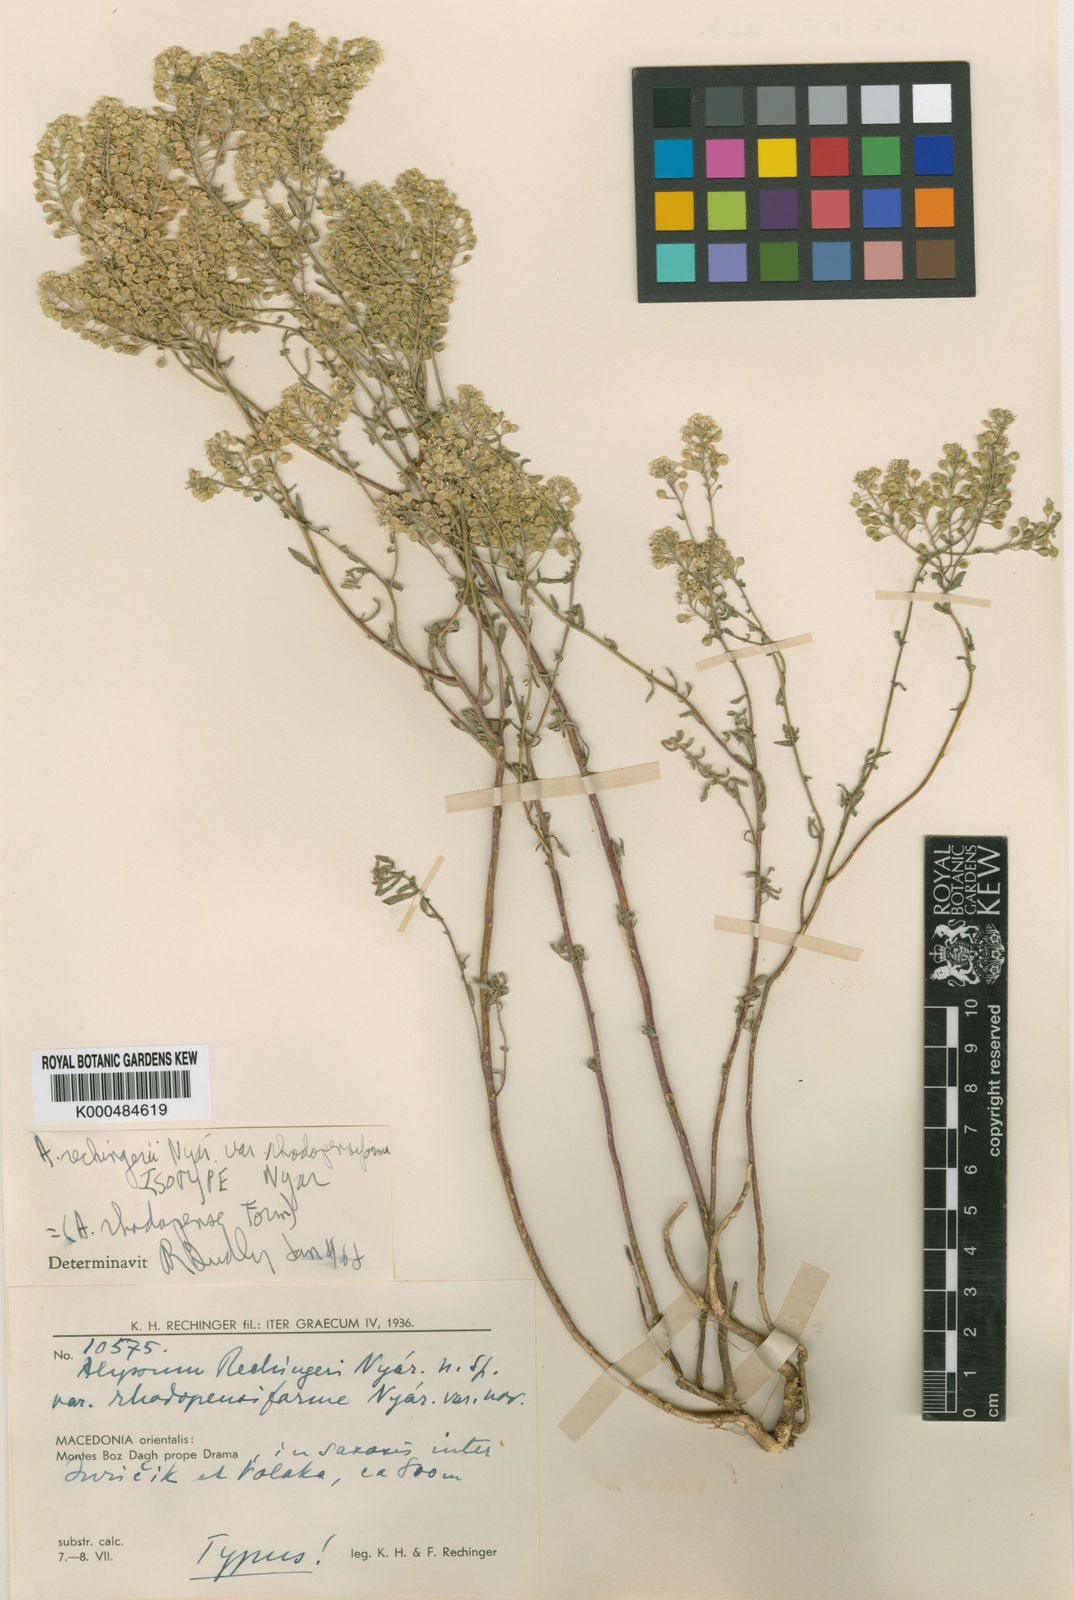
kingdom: Plantae
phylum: Tracheophyta
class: Magnoliopsida
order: Brassicales
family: Brassicaceae
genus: Odontarrhena
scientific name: Odontarrhena corymbosoidea
